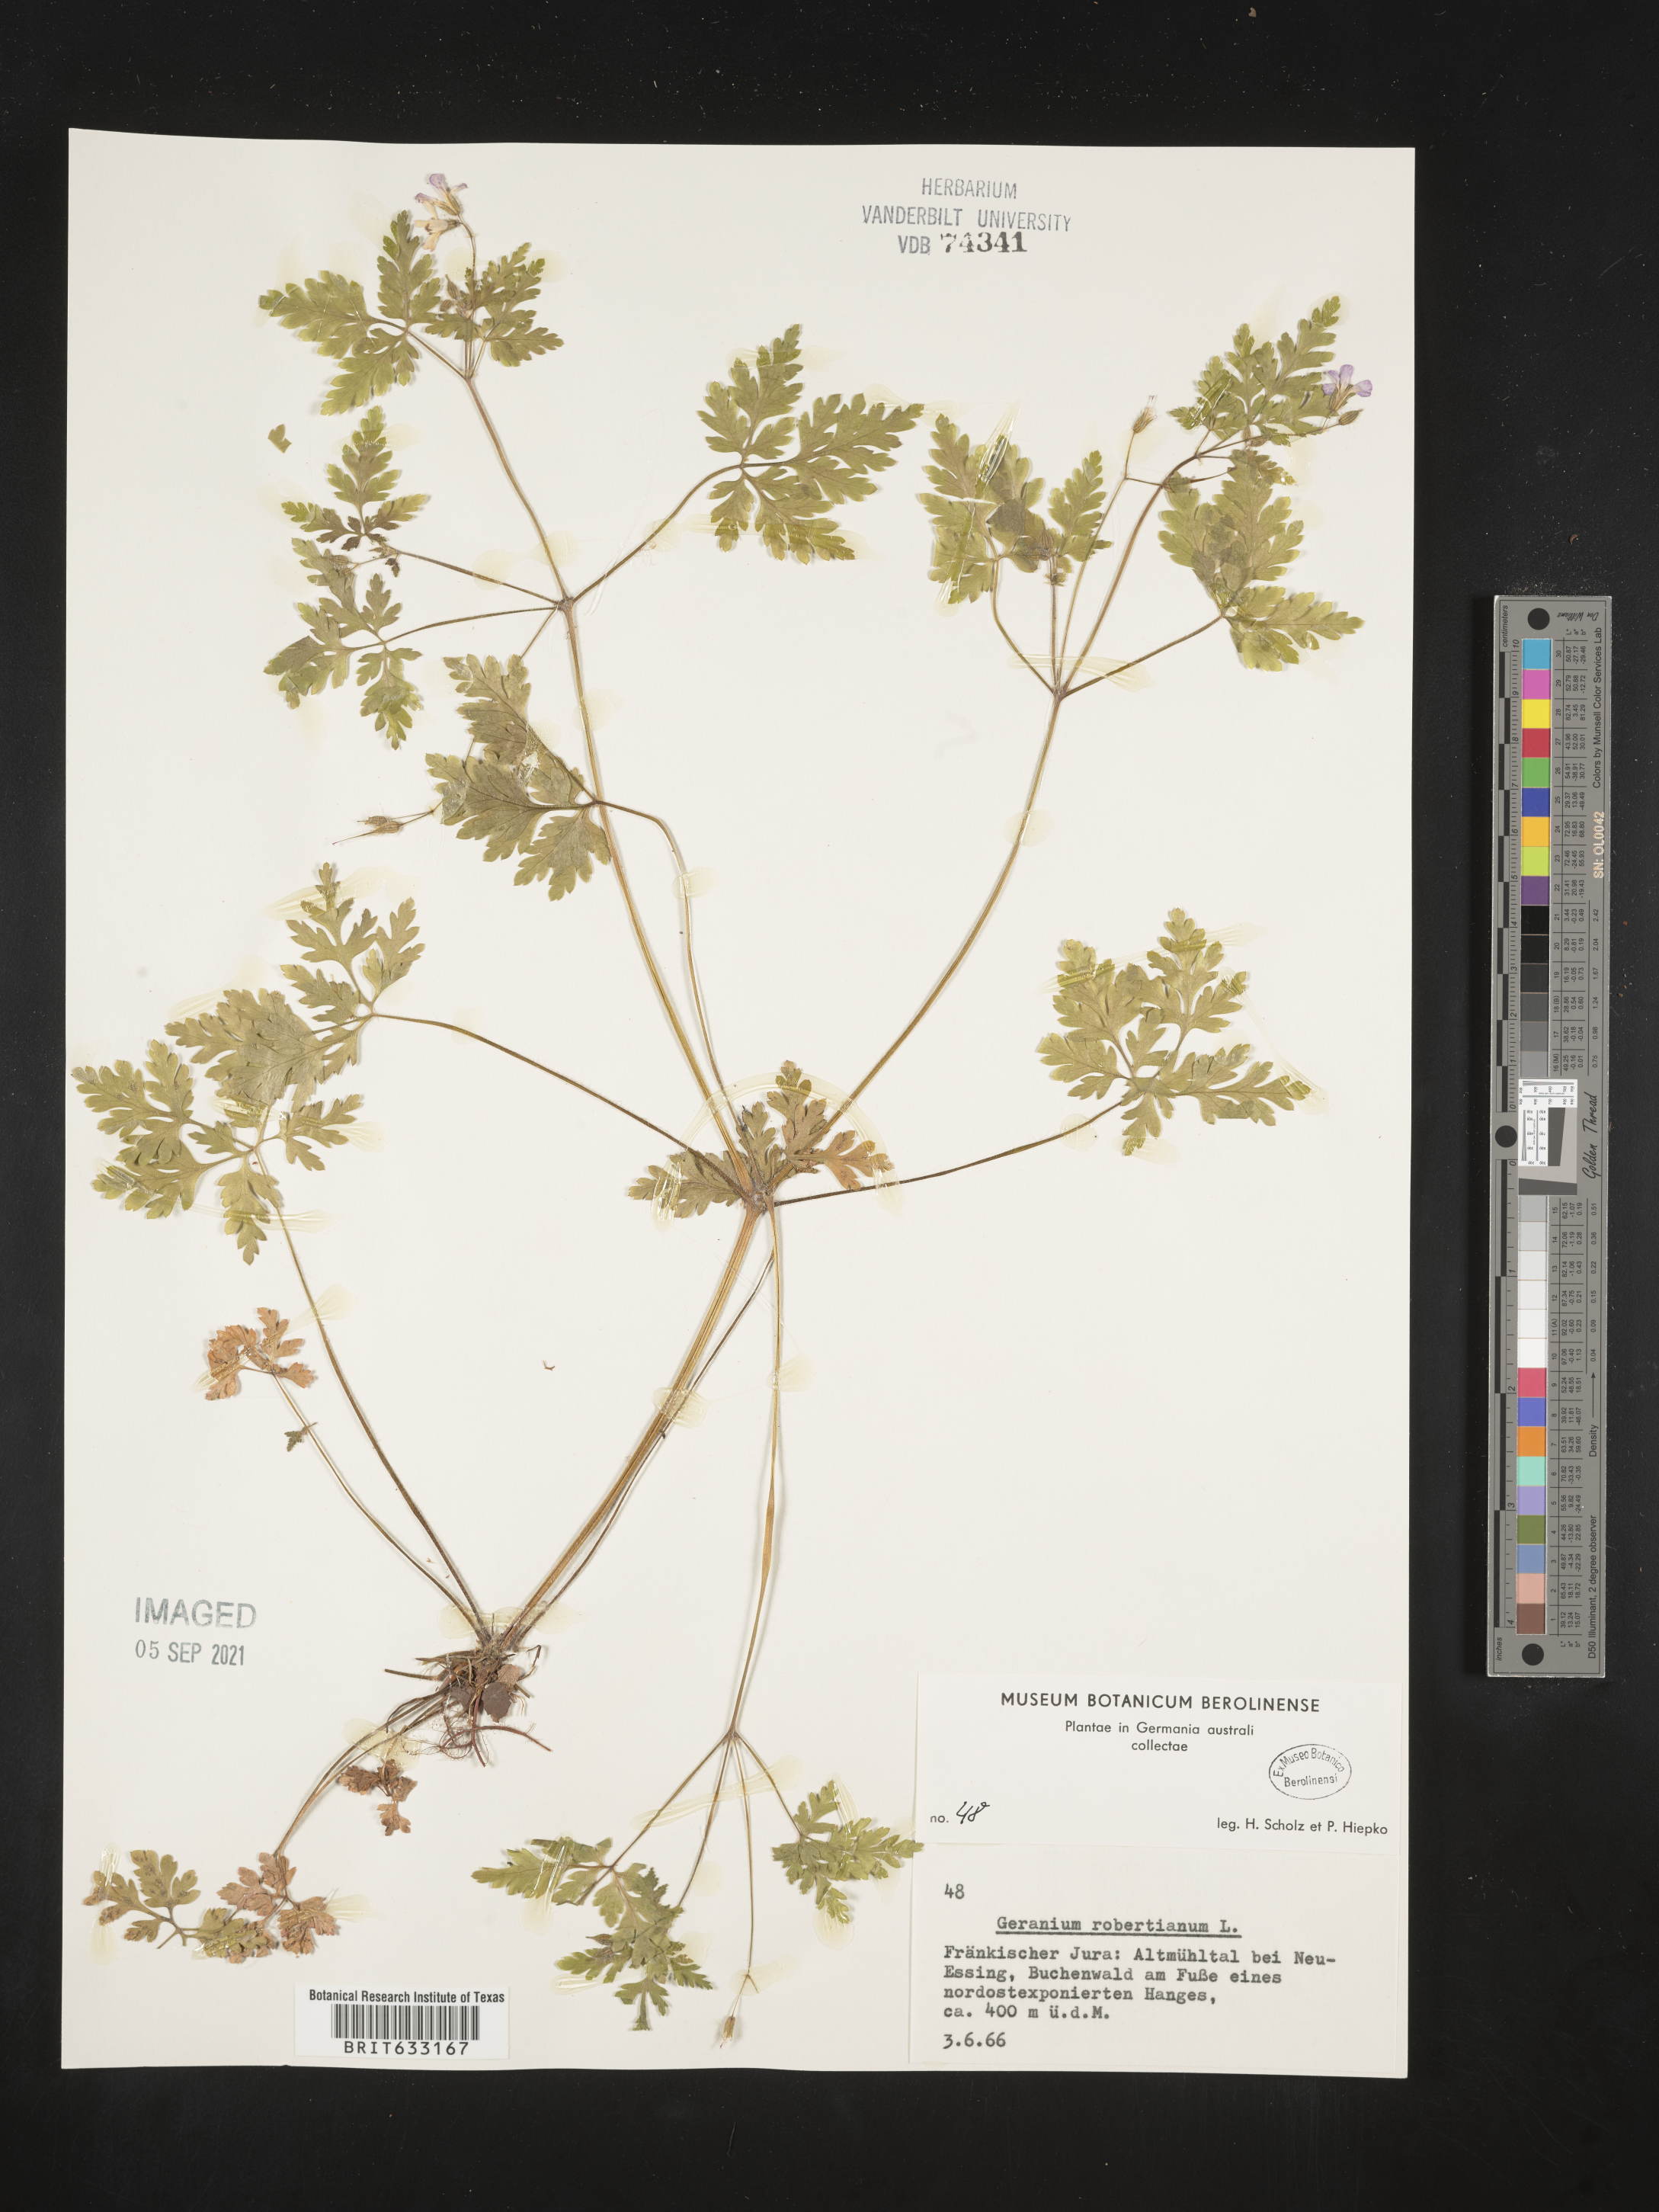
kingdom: Plantae
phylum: Tracheophyta
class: Magnoliopsida
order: Geraniales
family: Geraniaceae
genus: Geranium
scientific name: Geranium
